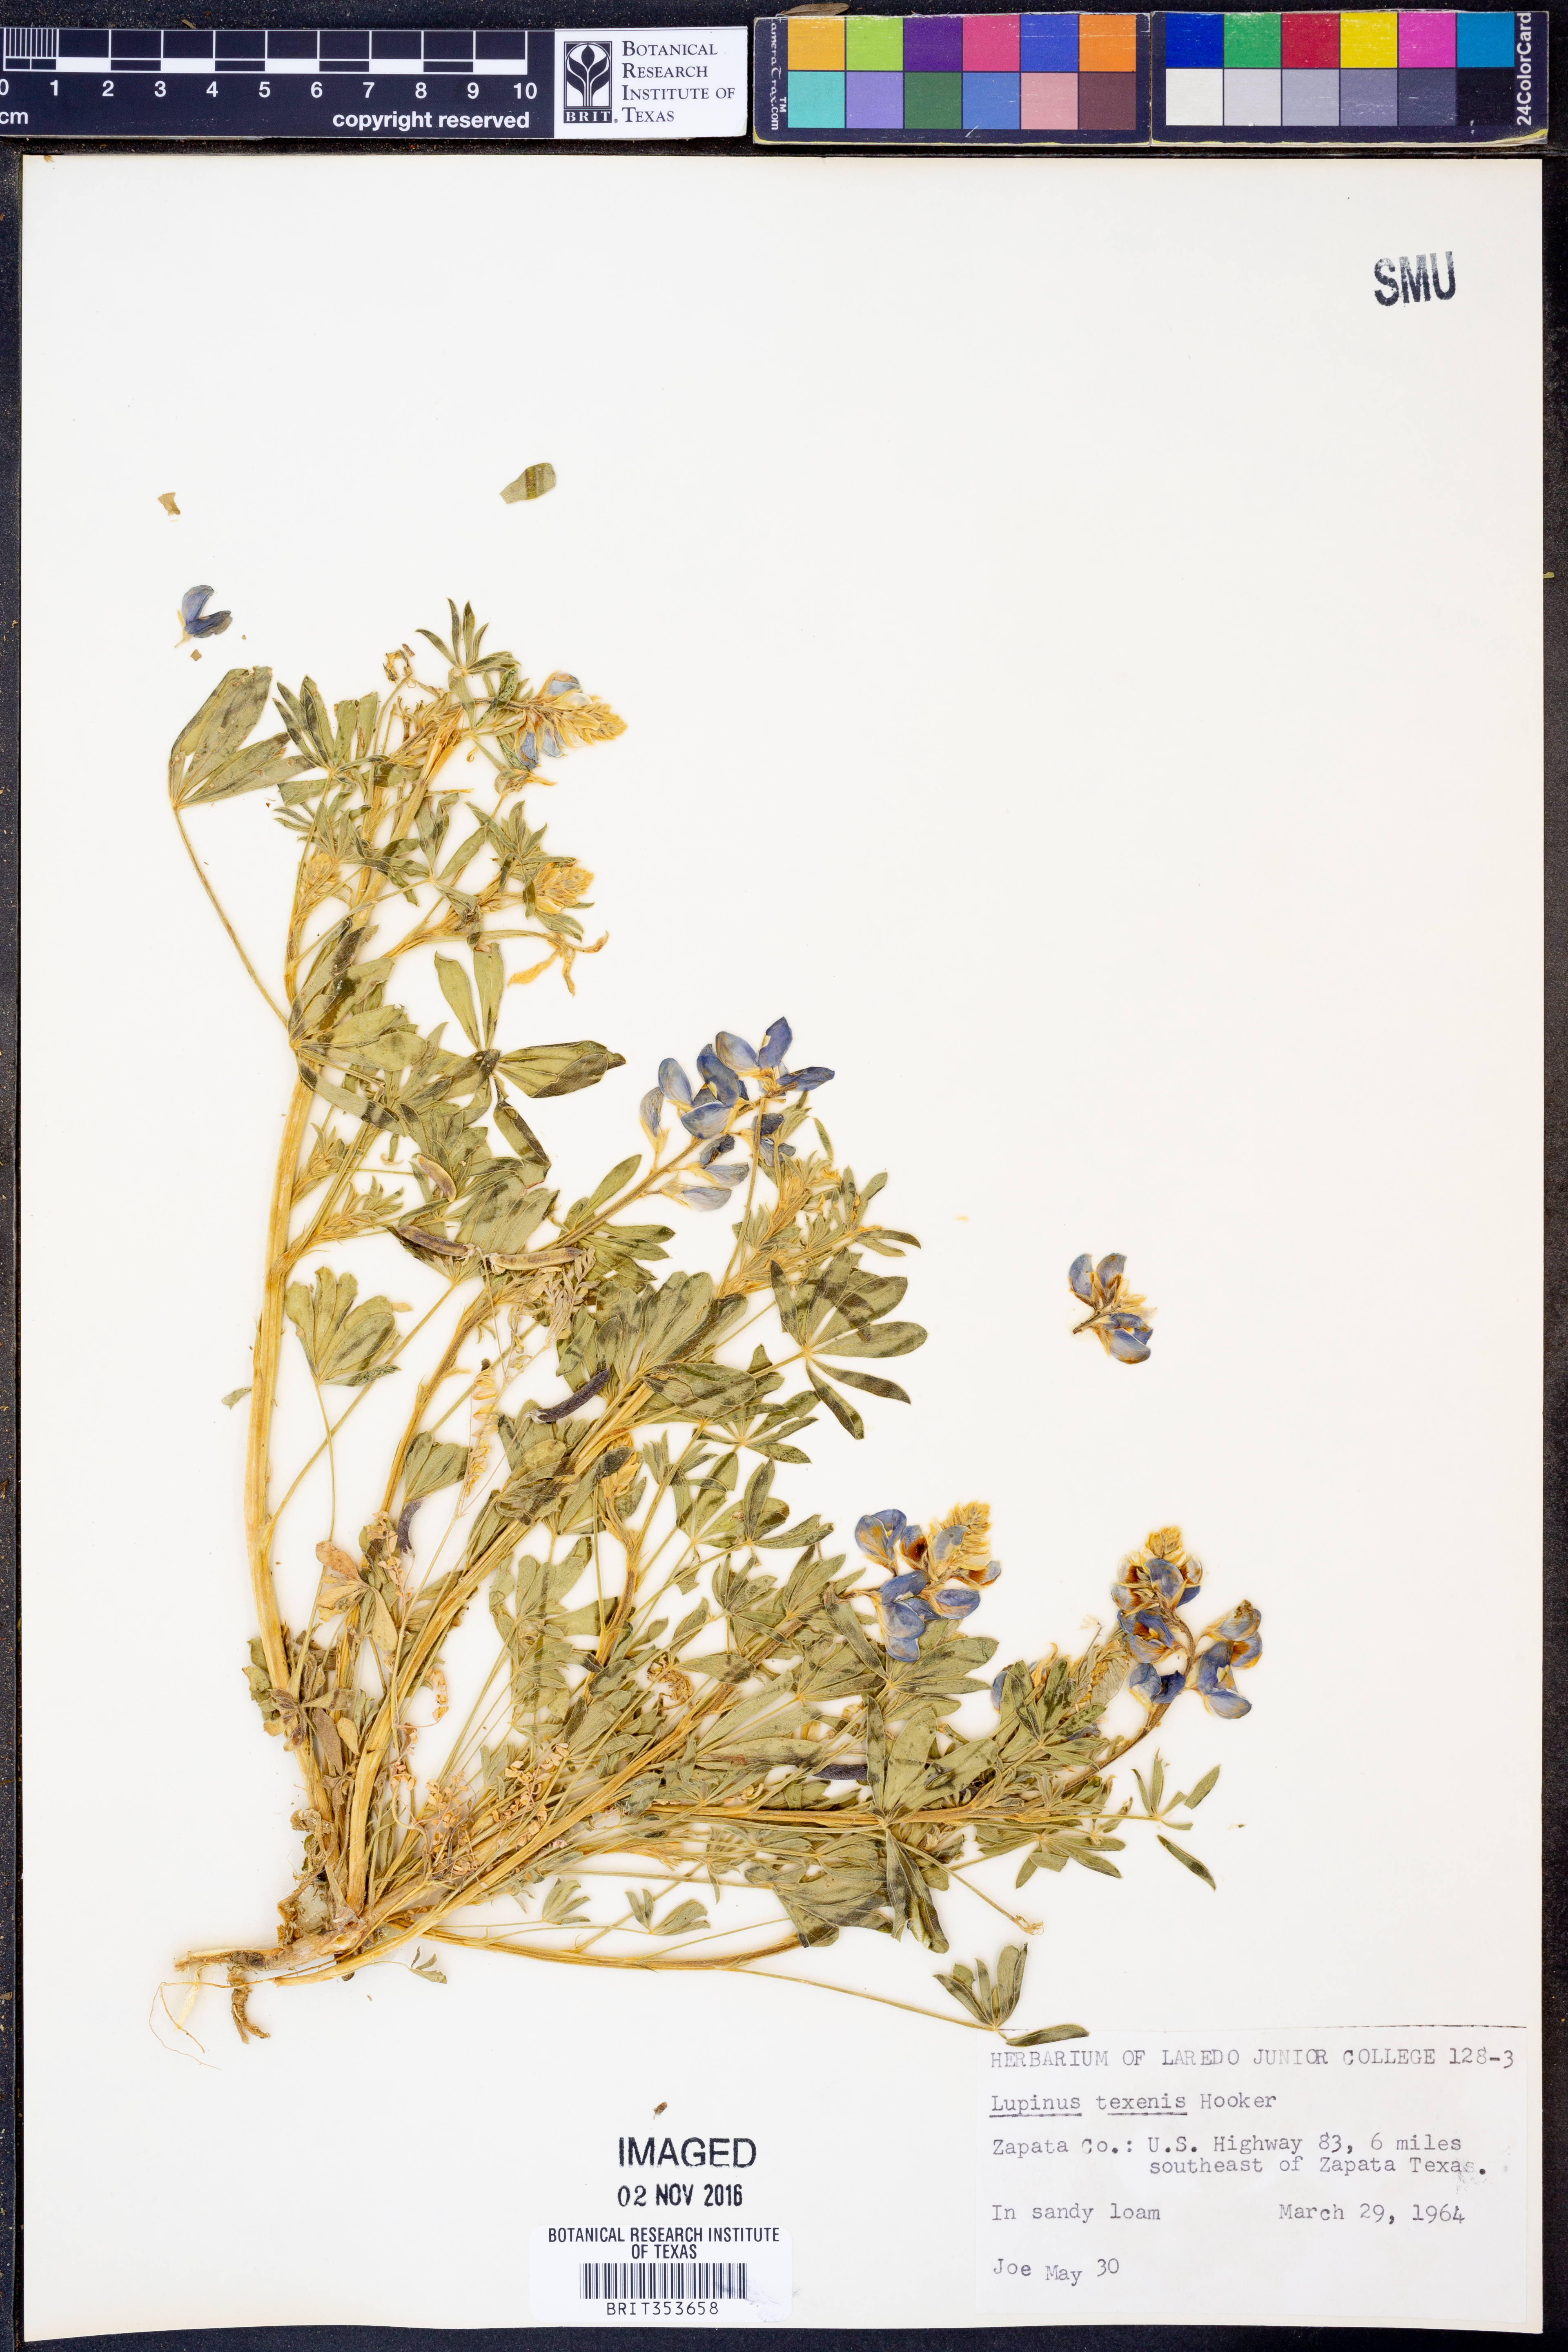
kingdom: Plantae
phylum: Tracheophyta
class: Magnoliopsida
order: Fabales
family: Fabaceae
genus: Lupinus
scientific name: Lupinus texensis
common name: Texas bluebonnet
